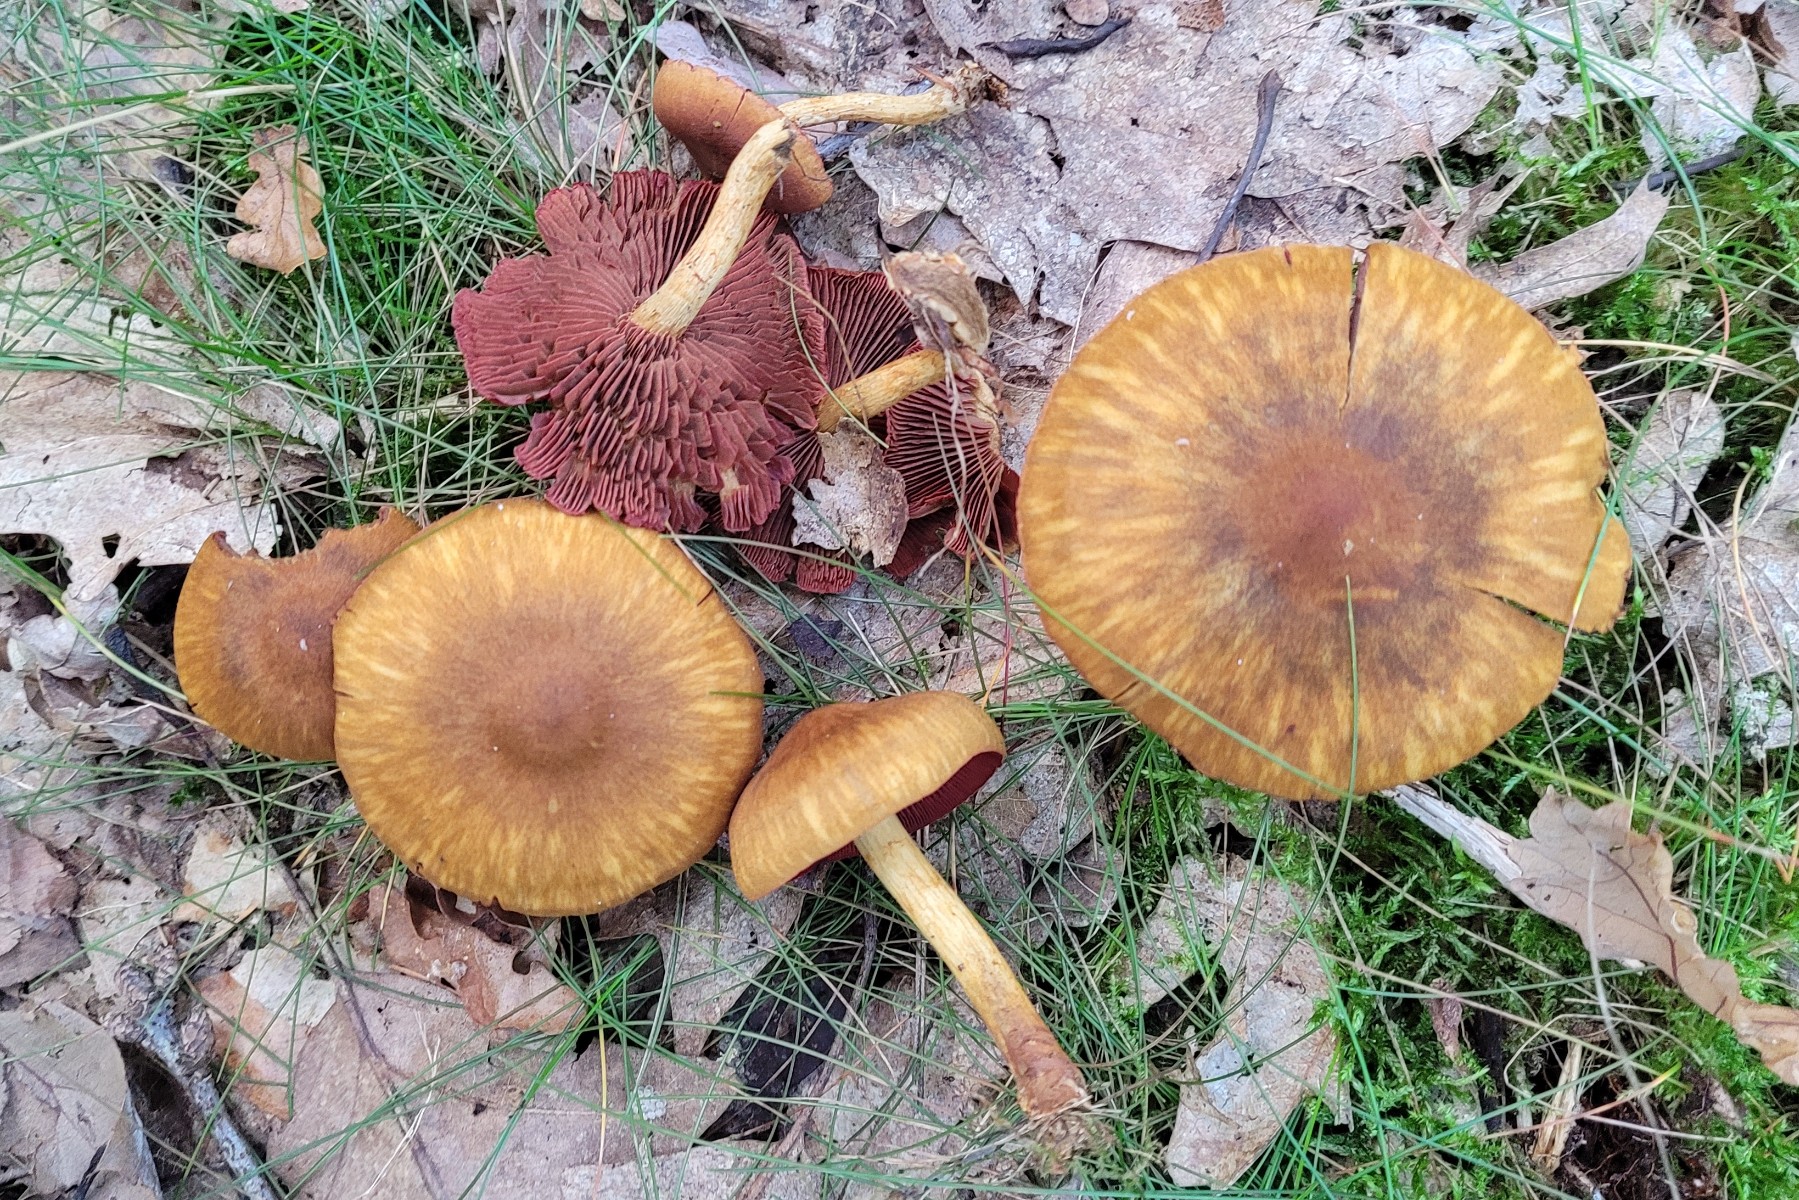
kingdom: Fungi
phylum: Basidiomycota
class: Agaricomycetes
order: Agaricales
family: Cortinariaceae
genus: Cortinarius
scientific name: Cortinarius
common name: cinnoberbladet slørhat
